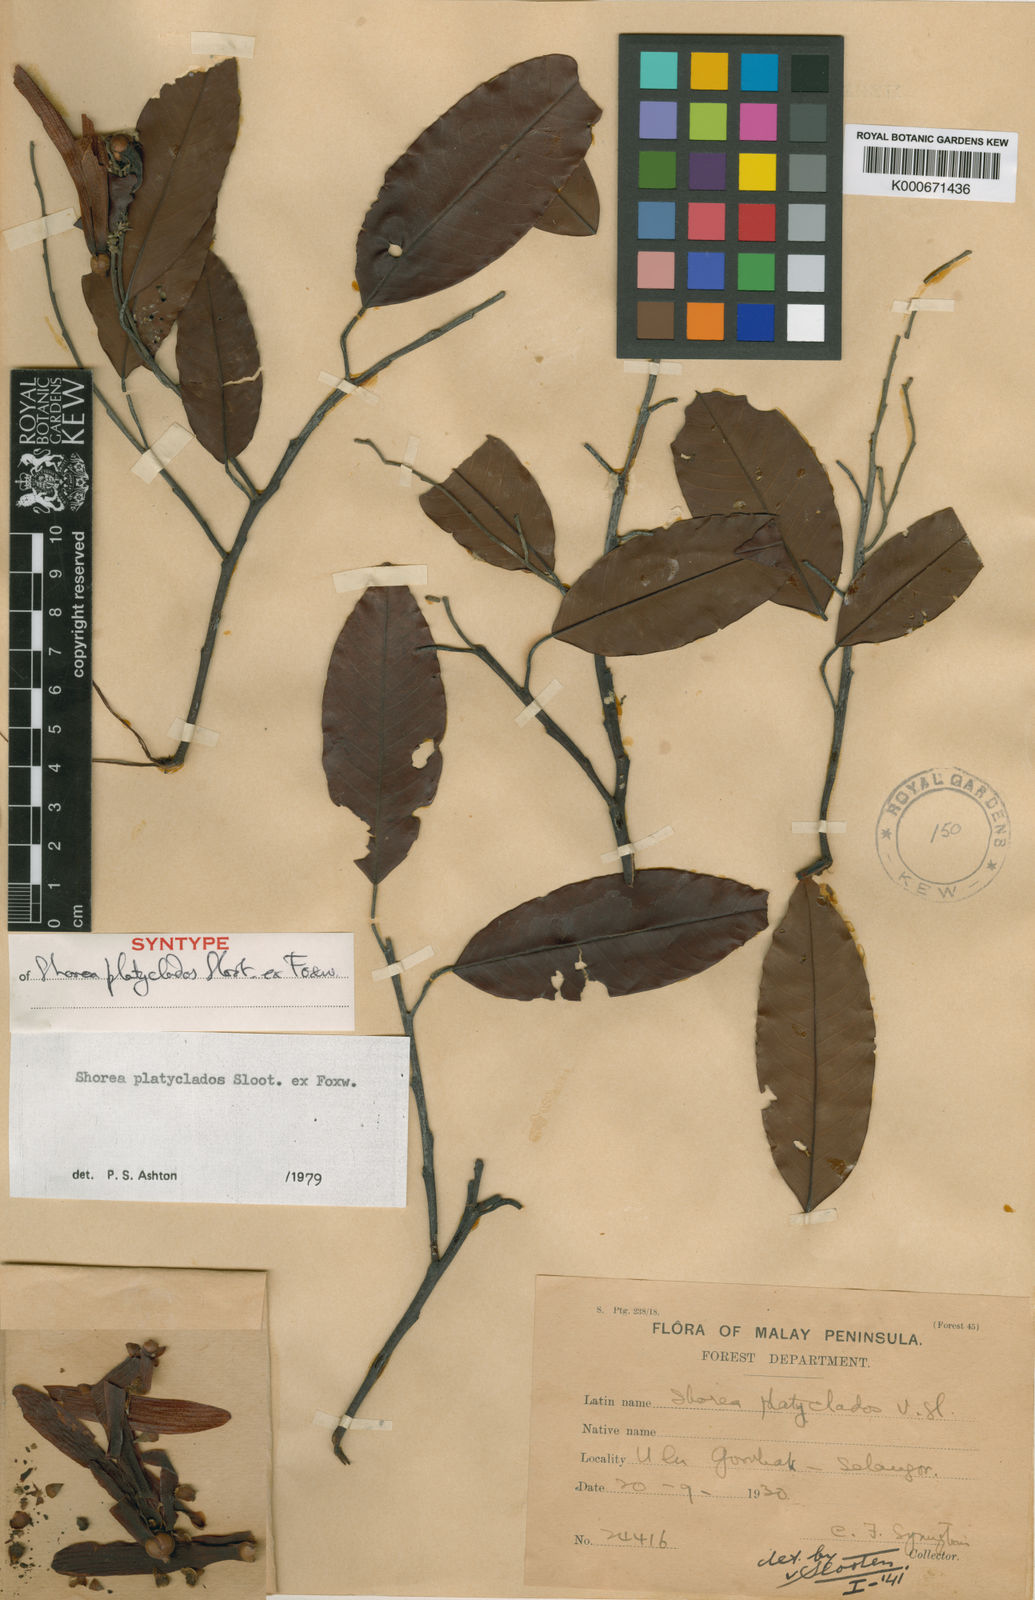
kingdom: Plantae
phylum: Tracheophyta
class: Magnoliopsida
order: Malvales
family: Dipterocarpaceae
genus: Shorea
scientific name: Shorea
